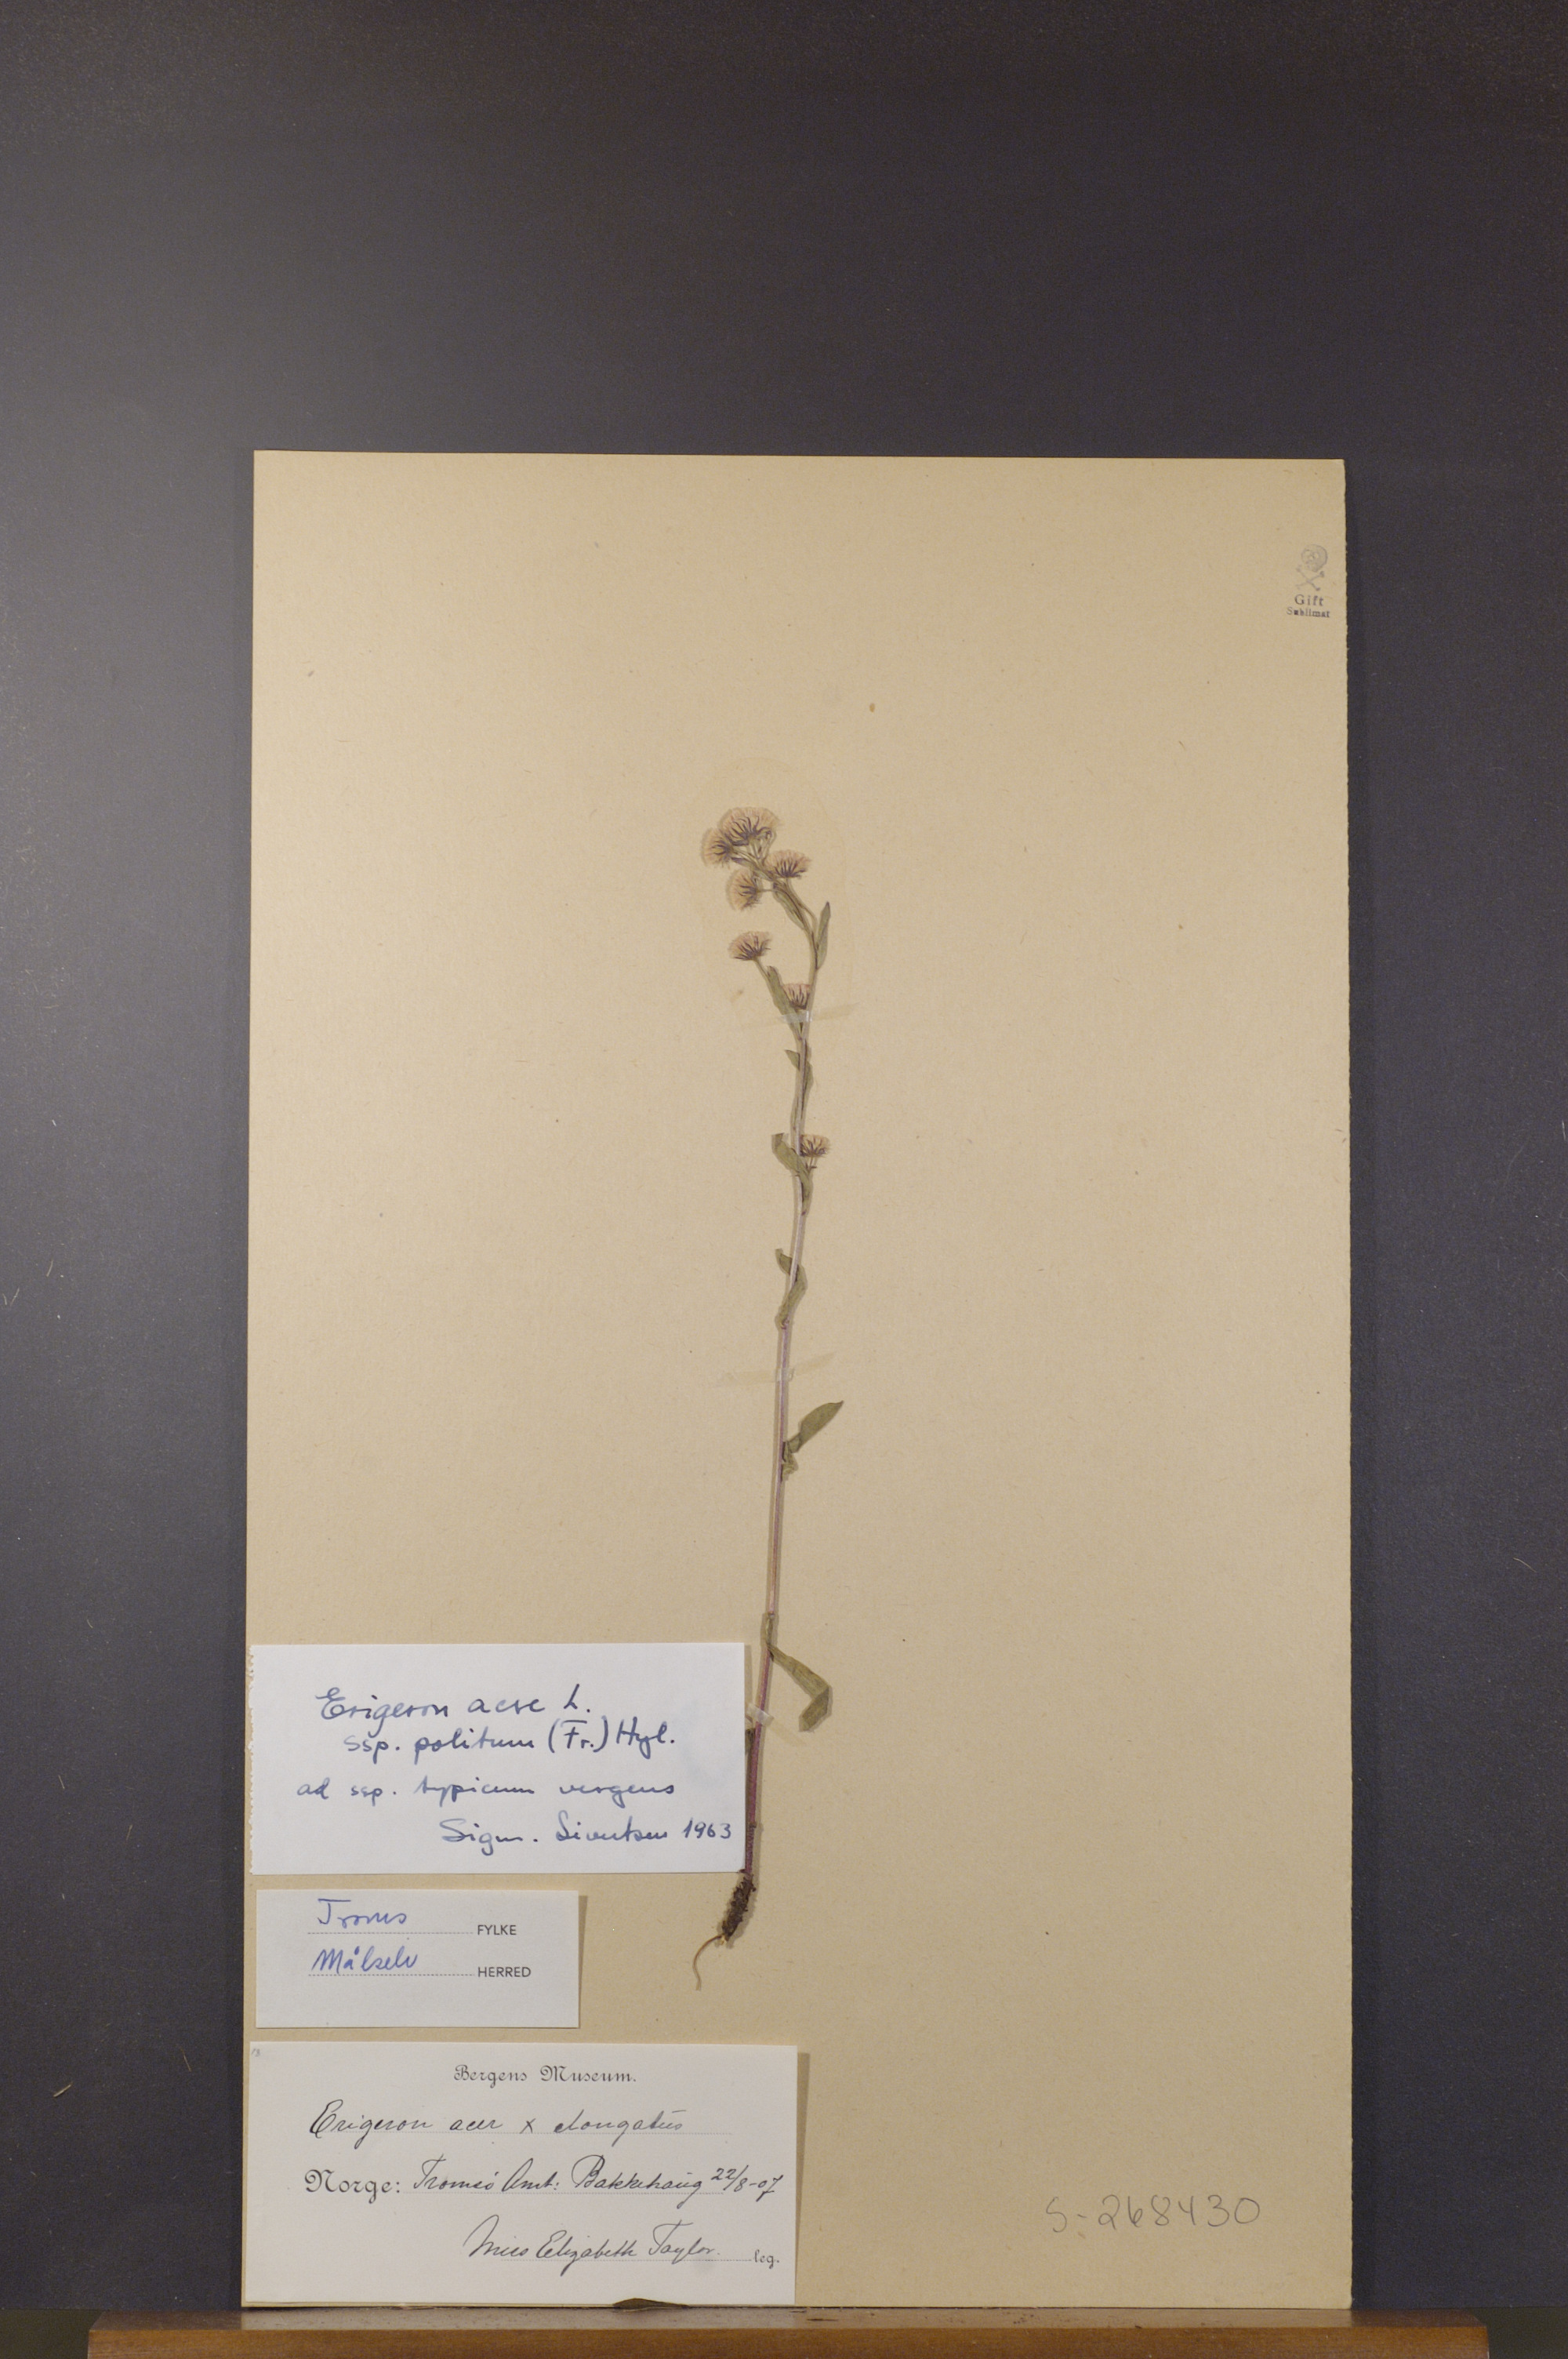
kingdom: Plantae
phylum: Tracheophyta
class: Magnoliopsida
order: Asterales
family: Asteraceae
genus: Erigeron
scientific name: Erigeron politus
